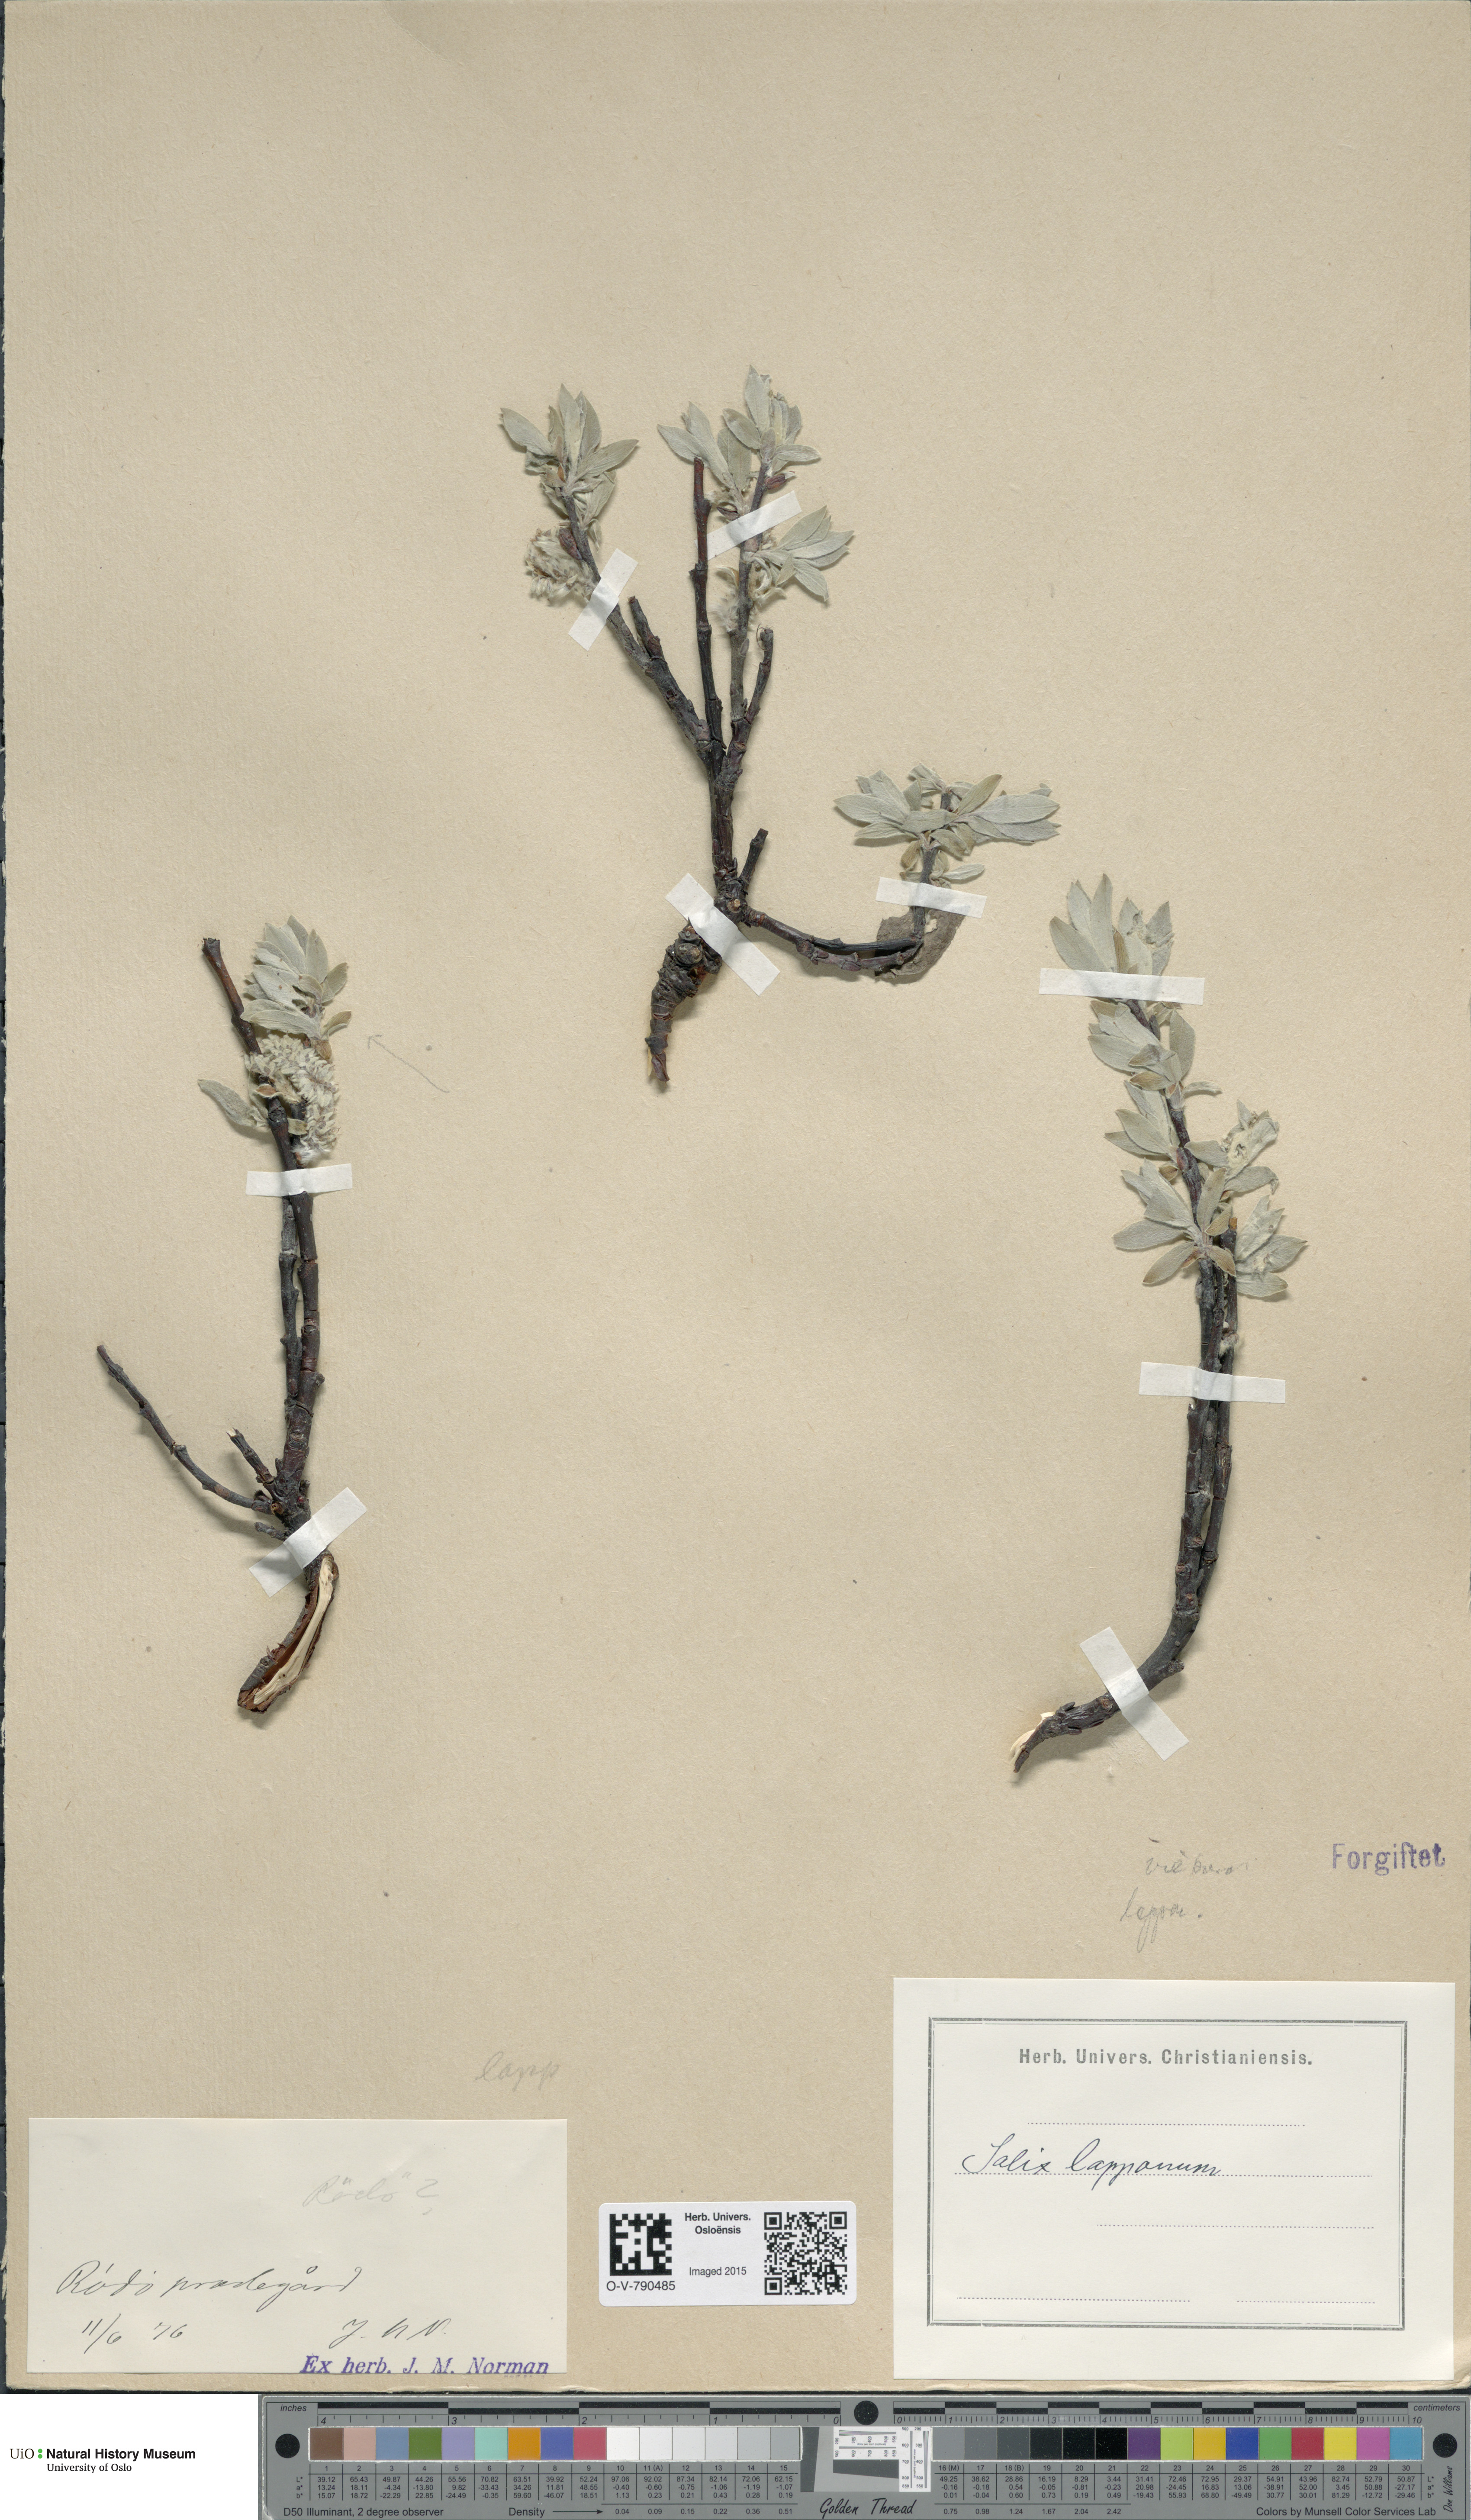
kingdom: Plantae
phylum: Tracheophyta
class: Magnoliopsida
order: Malpighiales
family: Salicaceae
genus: Salix
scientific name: Salix lapponum
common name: Downy willow
